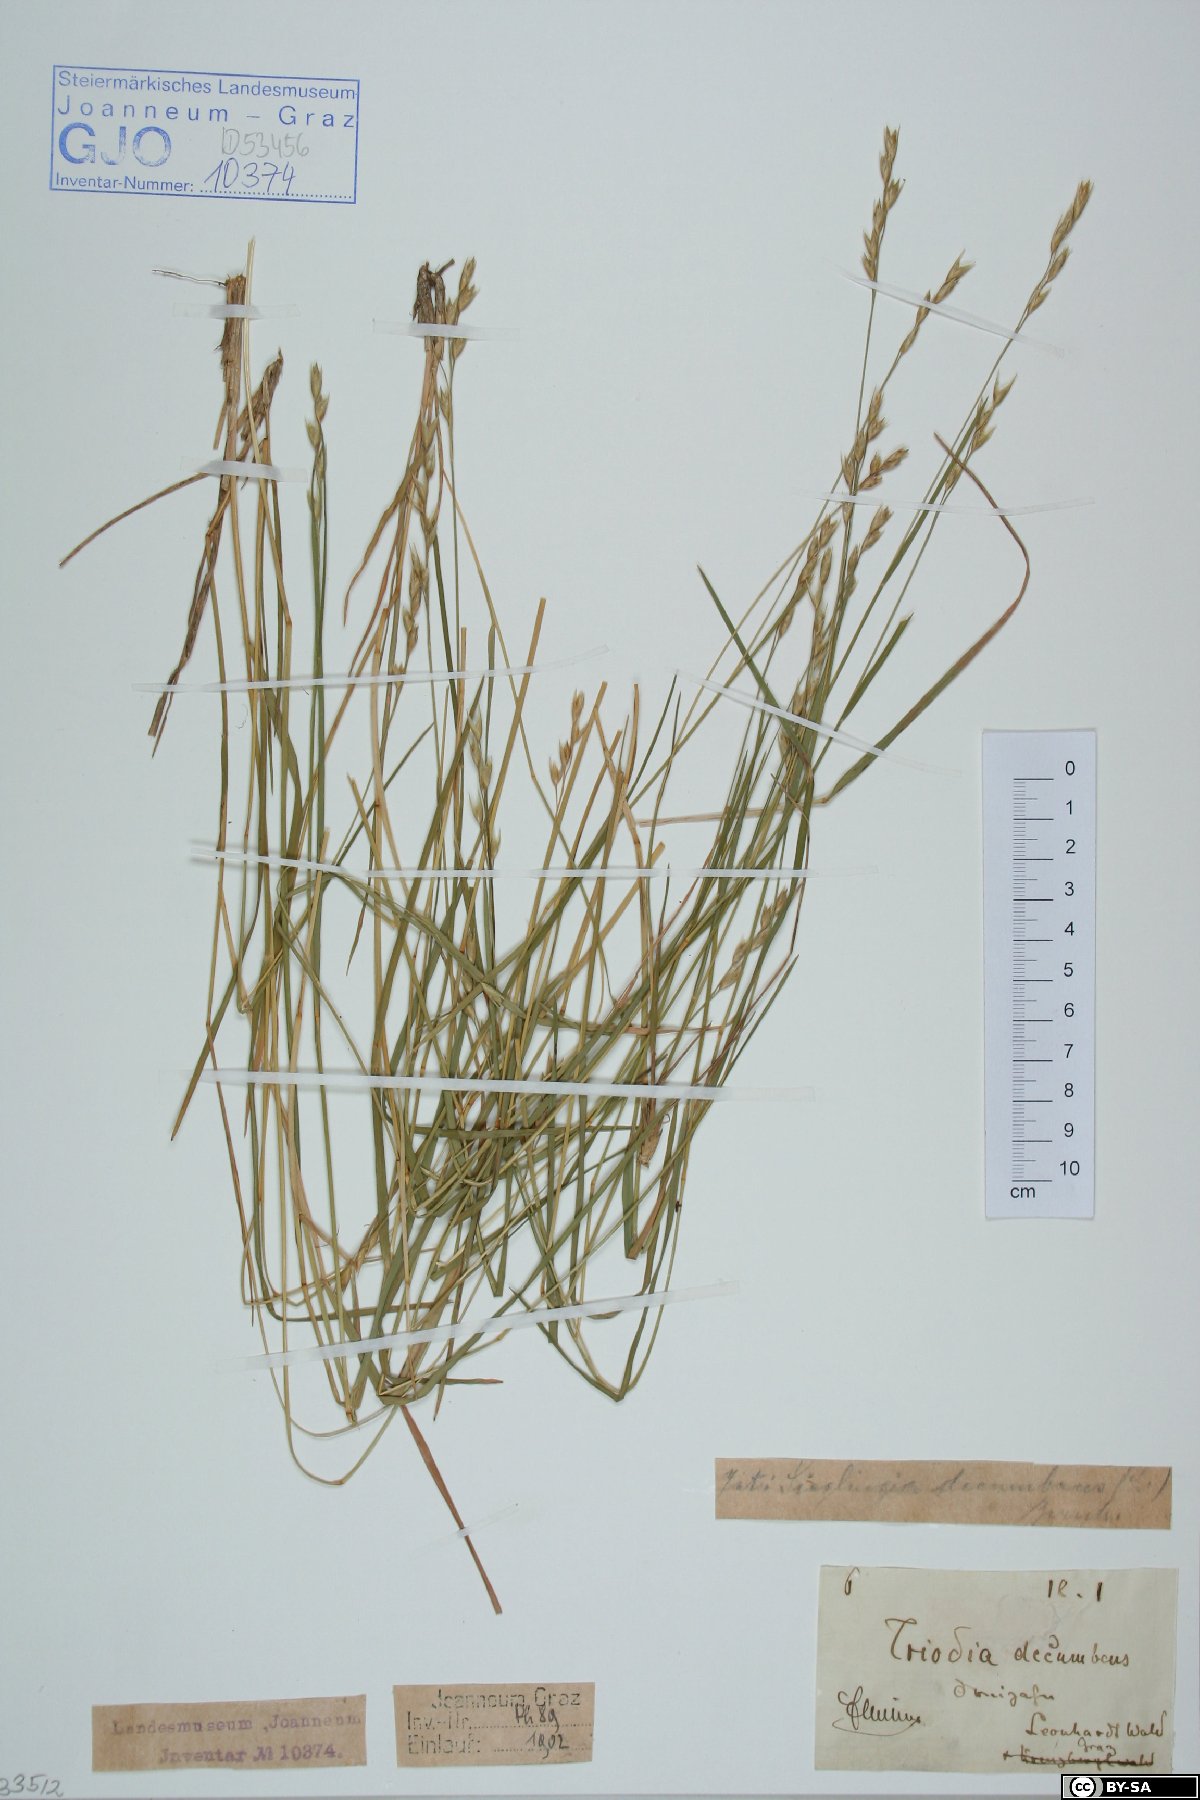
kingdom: Plantae
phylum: Tracheophyta
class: Liliopsida
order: Poales
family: Poaceae
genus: Danthonia
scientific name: Danthonia decumbens
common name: Common heathgrass
